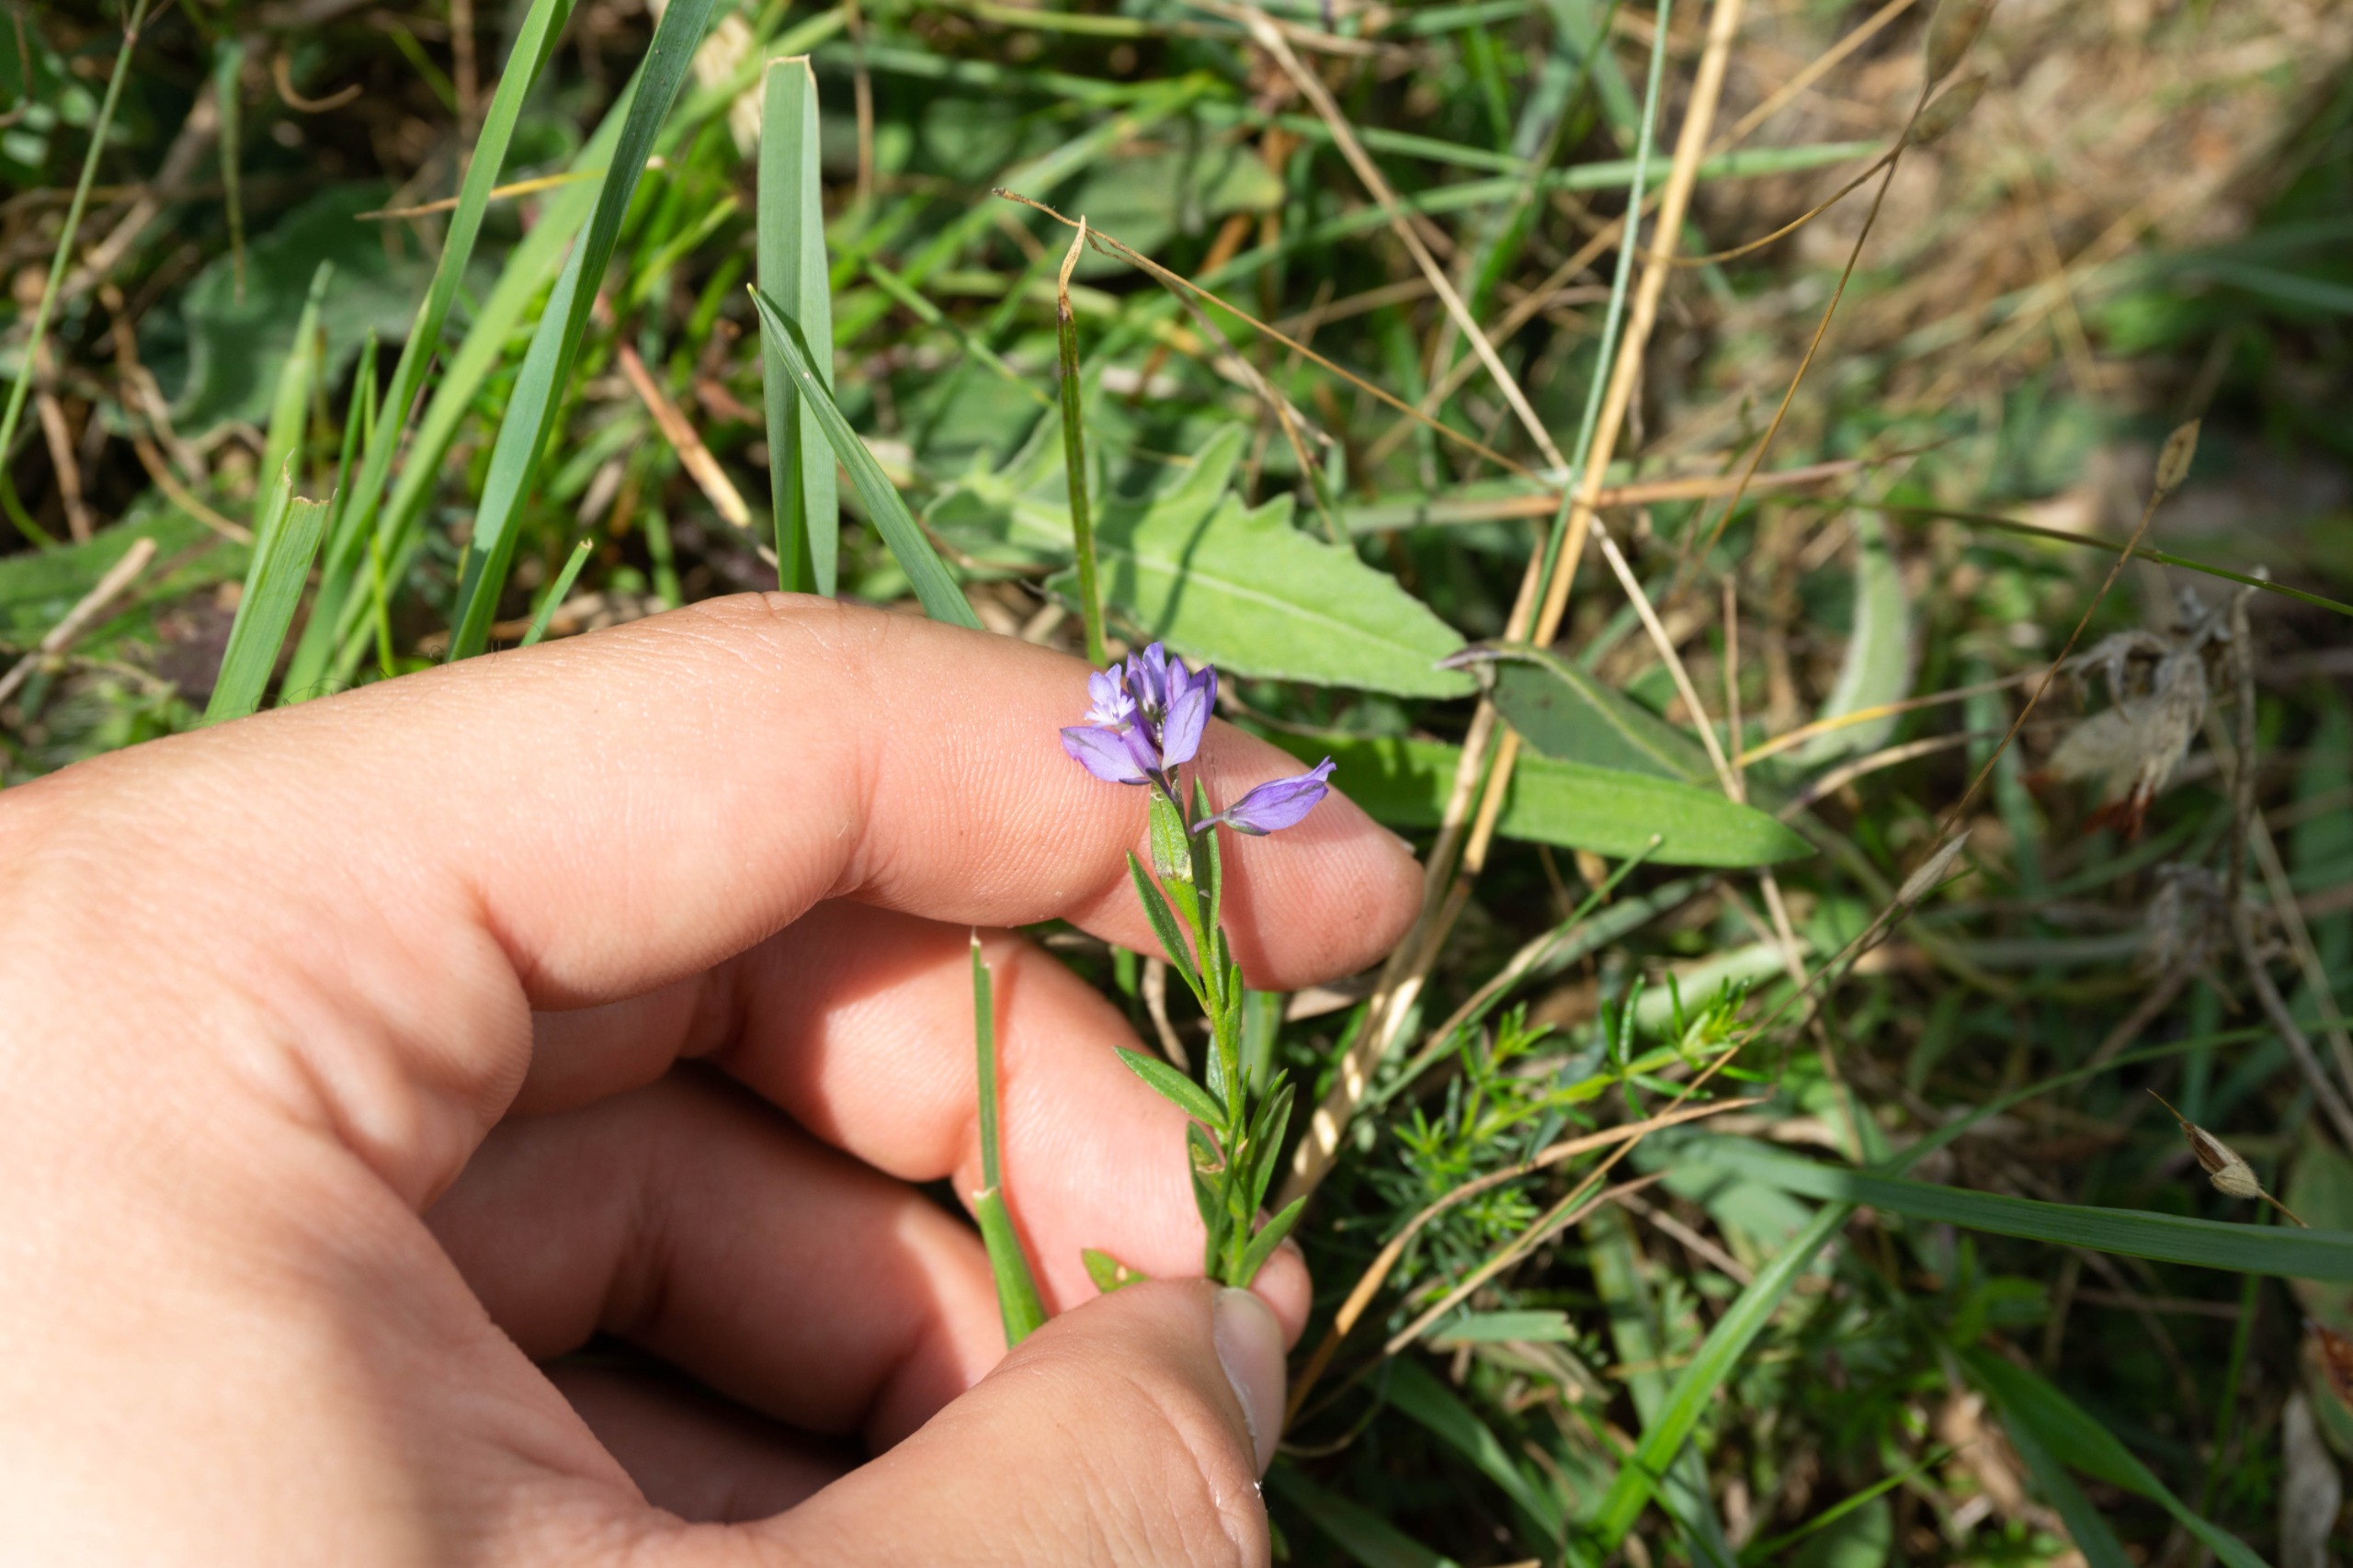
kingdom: Plantae
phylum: Tracheophyta
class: Magnoliopsida
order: Fabales
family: Polygalaceae
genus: Polygala
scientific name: Polygala vulgaris
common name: Almindelig mælkeurt
